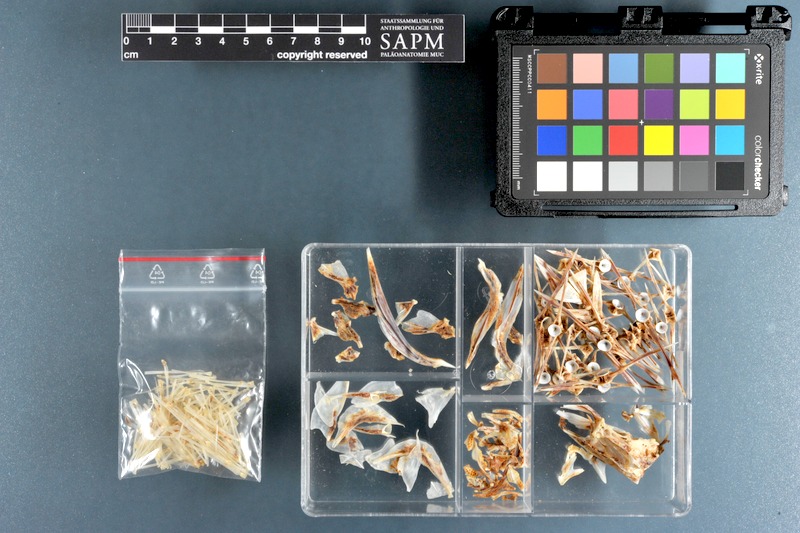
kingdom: Animalia
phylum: Chordata
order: Pleuronectiformes
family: Pleuronectidae
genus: Pleuronectes
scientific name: Pleuronectes platessa
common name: Plaice
